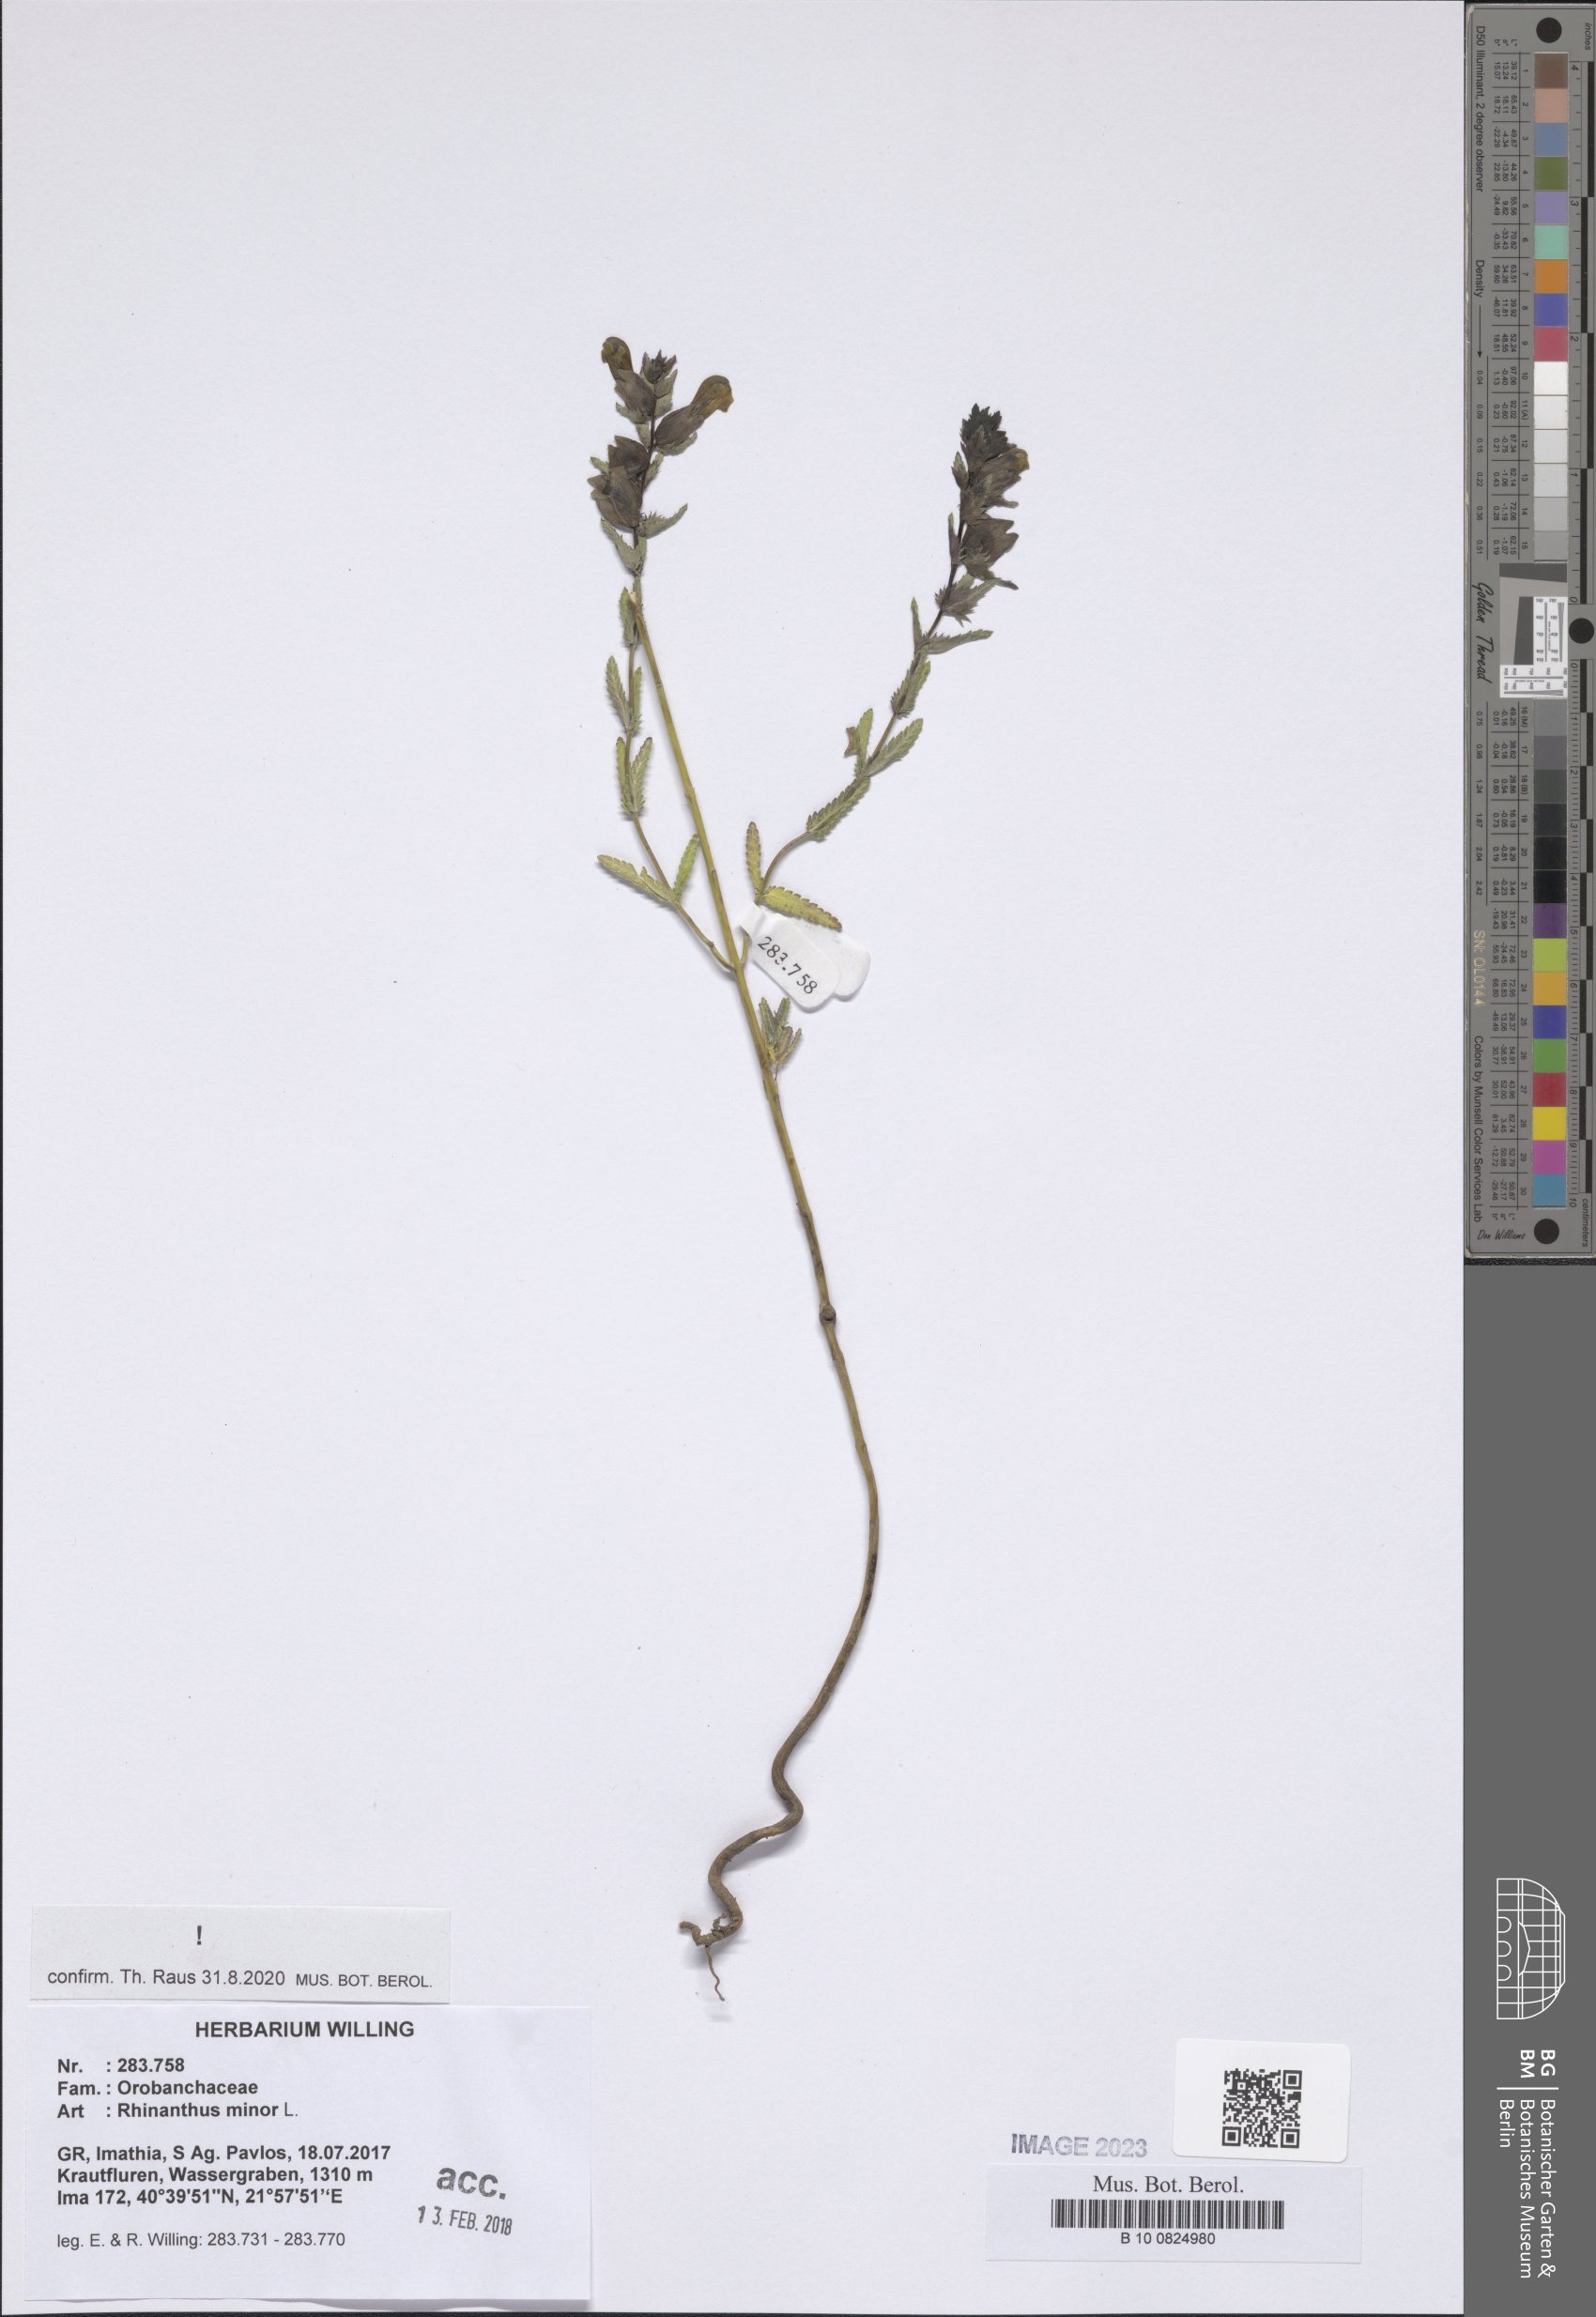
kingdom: Plantae
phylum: Tracheophyta
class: Magnoliopsida
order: Lamiales
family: Orobanchaceae
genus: Rhinanthus
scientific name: Rhinanthus minor
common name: Yellow-rattle
